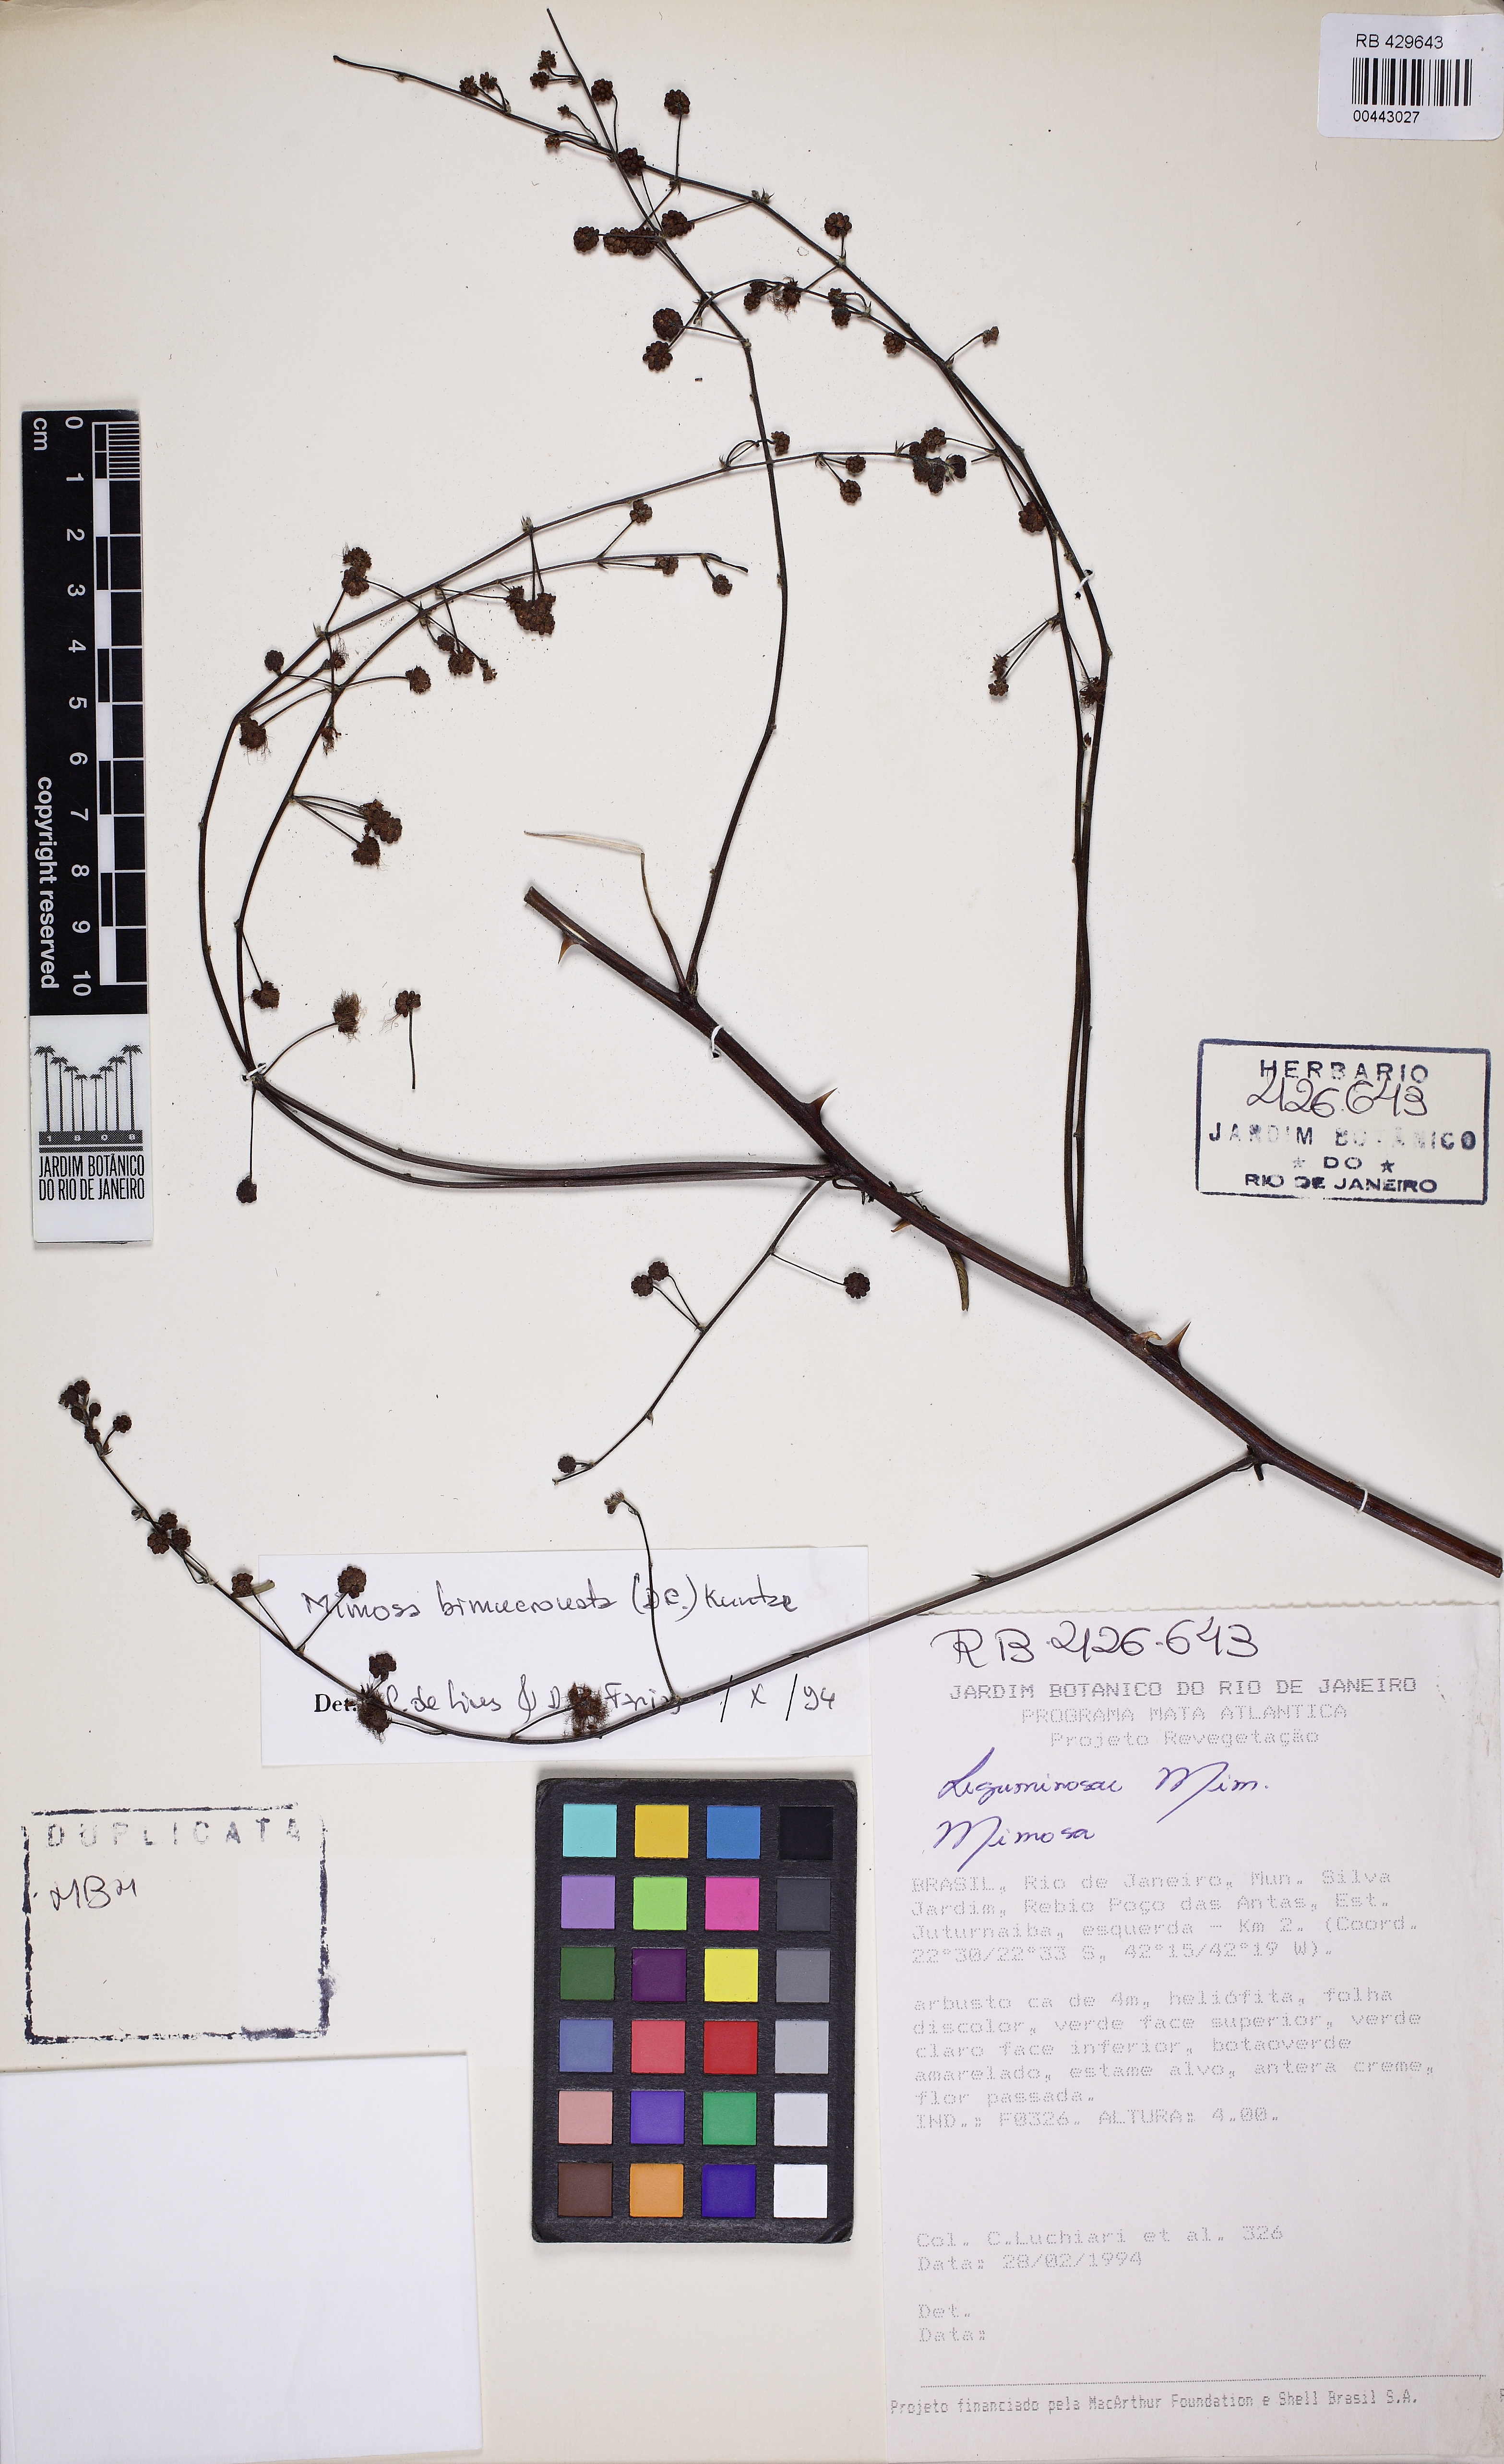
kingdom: Plantae
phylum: Tracheophyta
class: Magnoliopsida
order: Fabales
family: Fabaceae
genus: Mimosa
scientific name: Mimosa bimucronata
